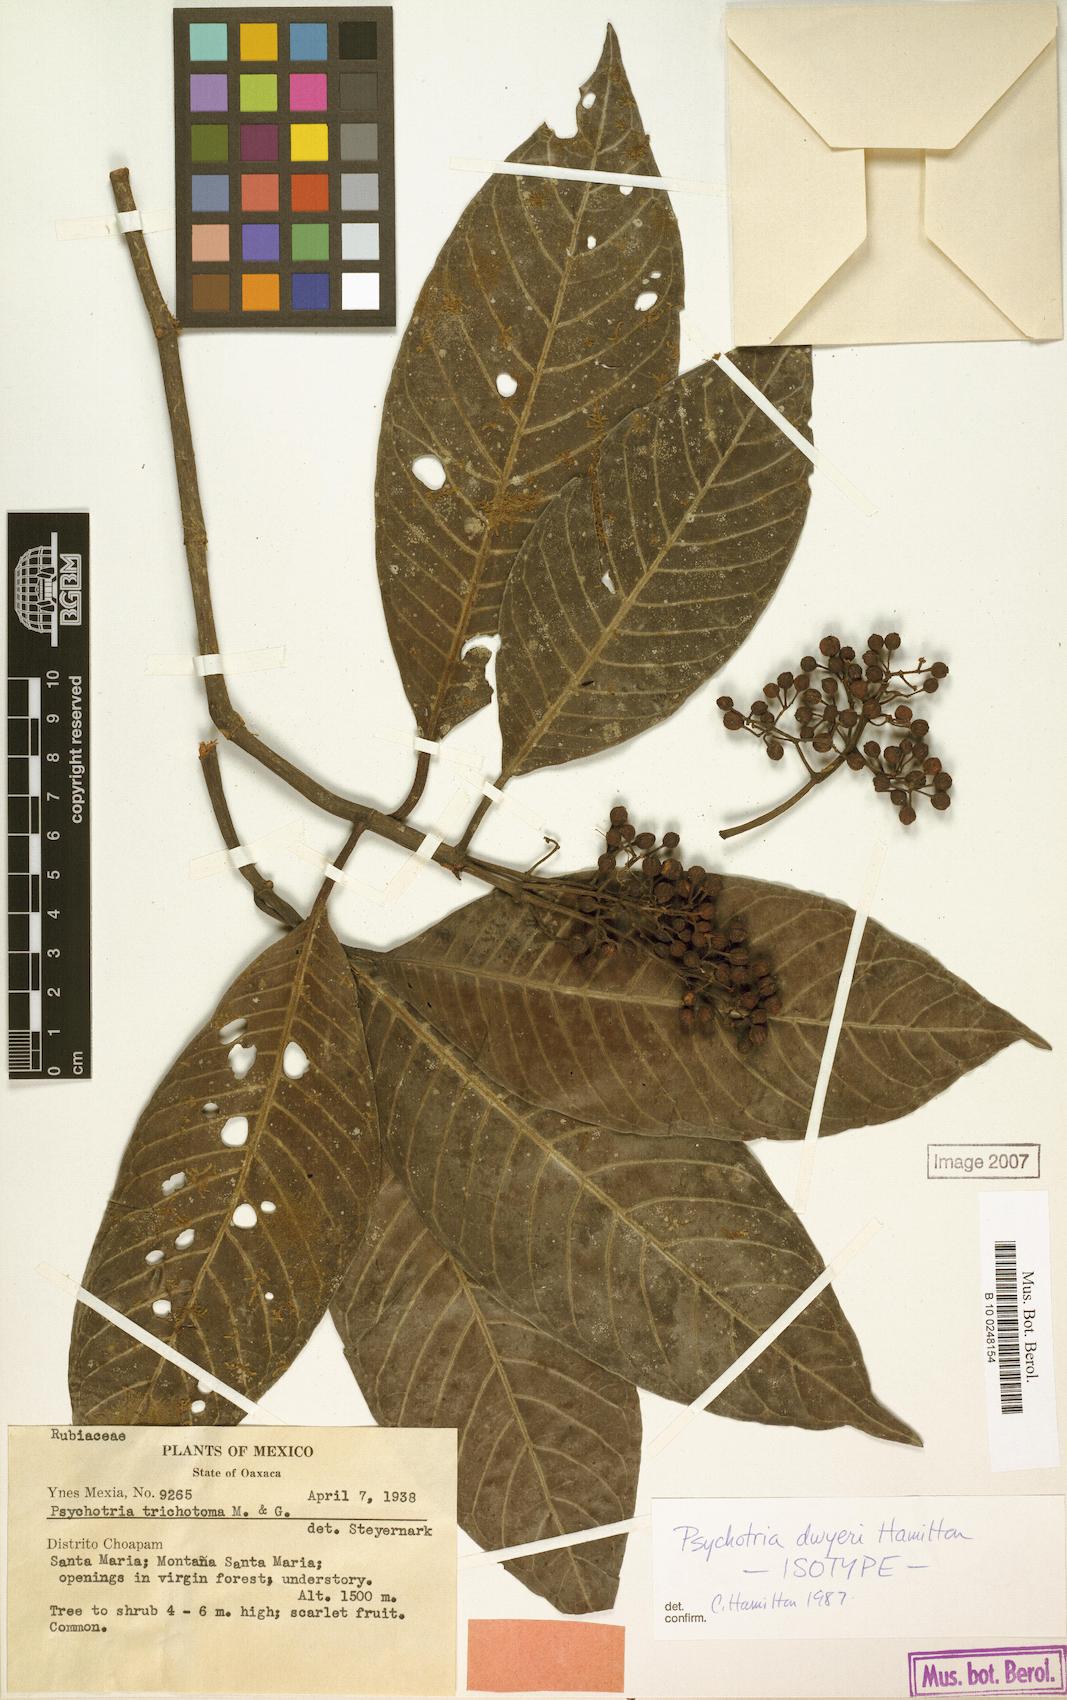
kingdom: Plantae
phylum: Tracheophyta
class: Magnoliopsida
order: Gentianales
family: Rubiaceae
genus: Psychotria
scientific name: Psychotria dwyeri
